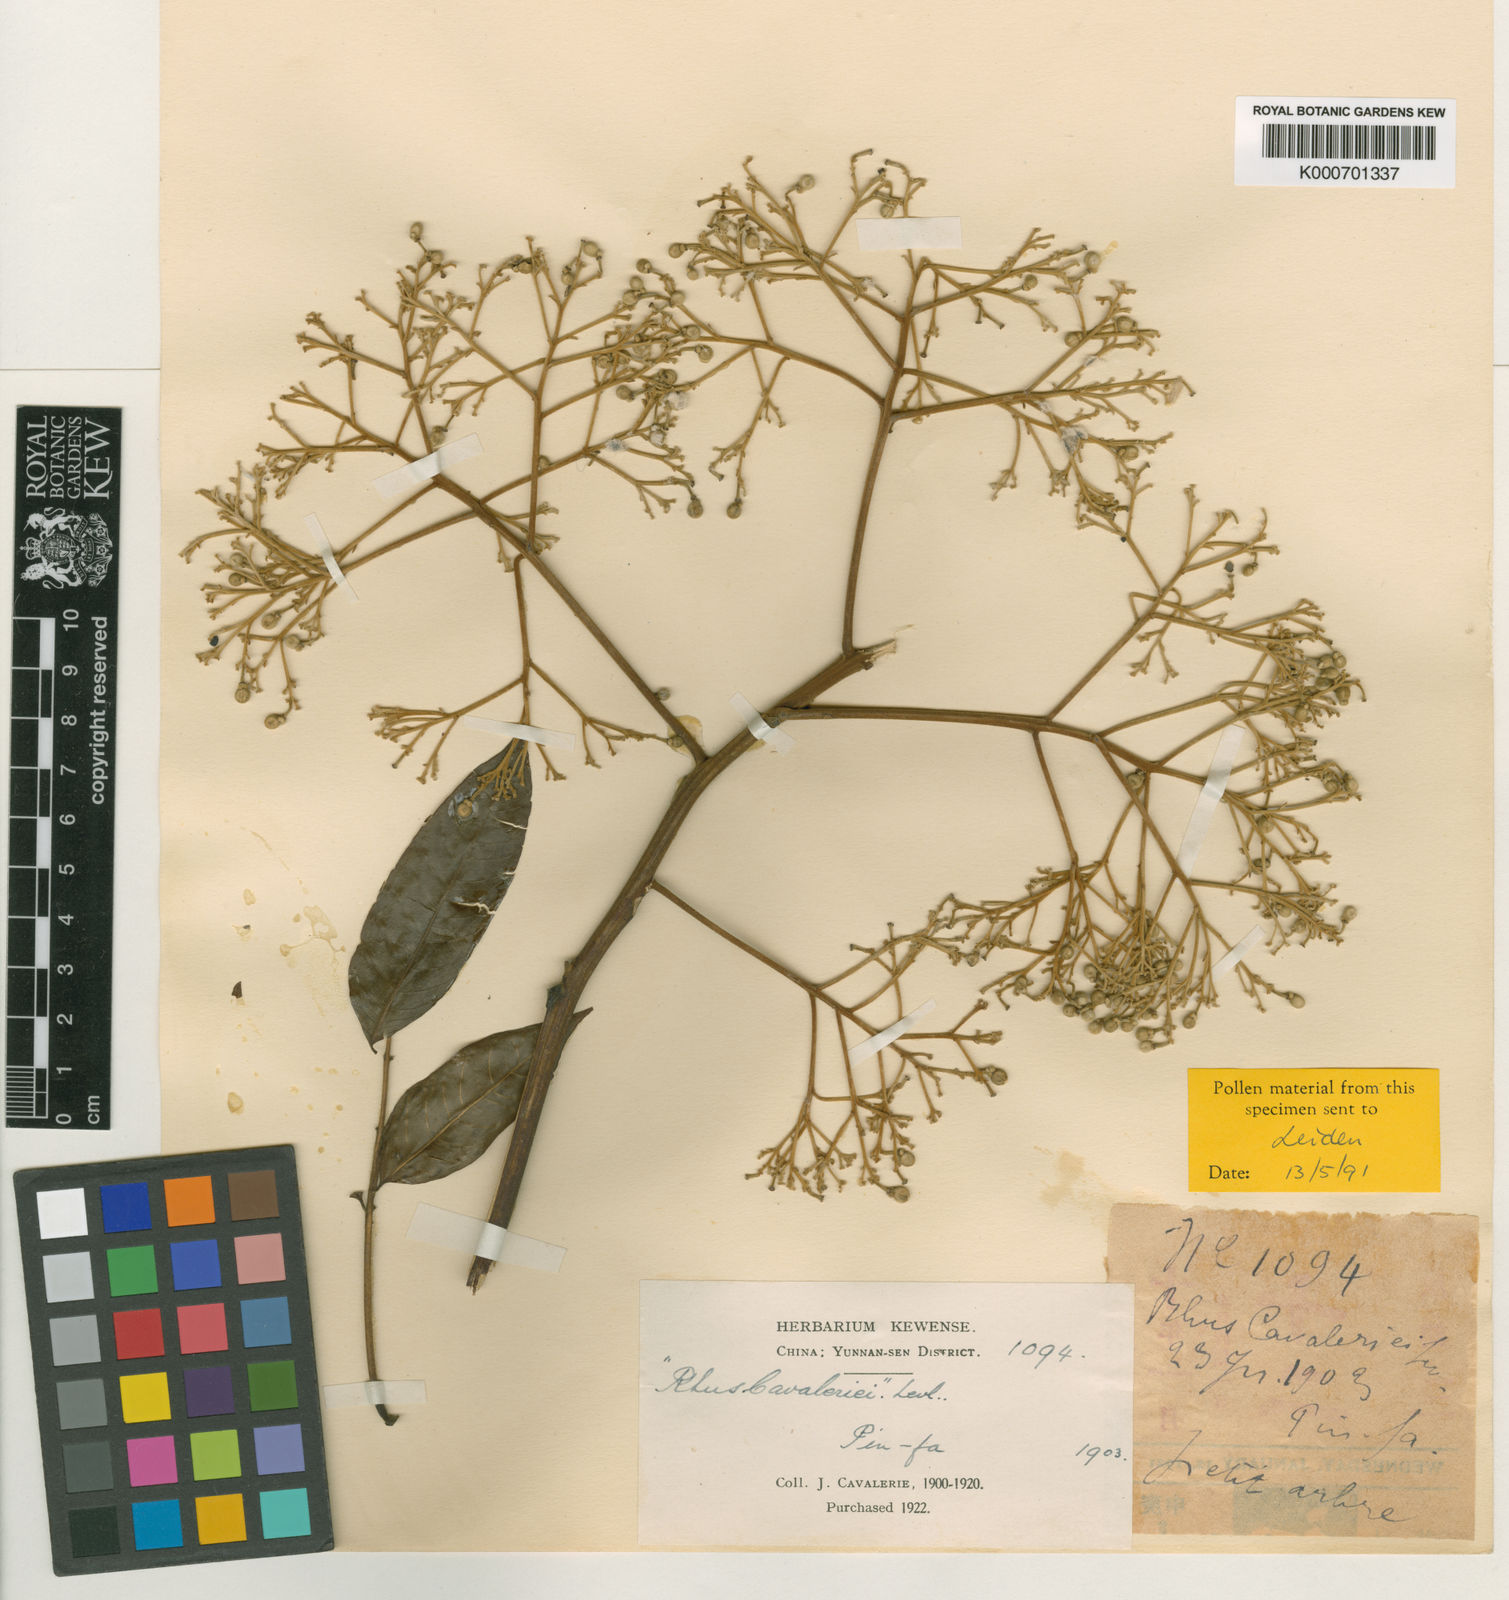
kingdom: Plantae
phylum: Tracheophyta
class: Magnoliopsida
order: Sapindales
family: Sapindaceae
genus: Eurycorymbus
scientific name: Eurycorymbus
